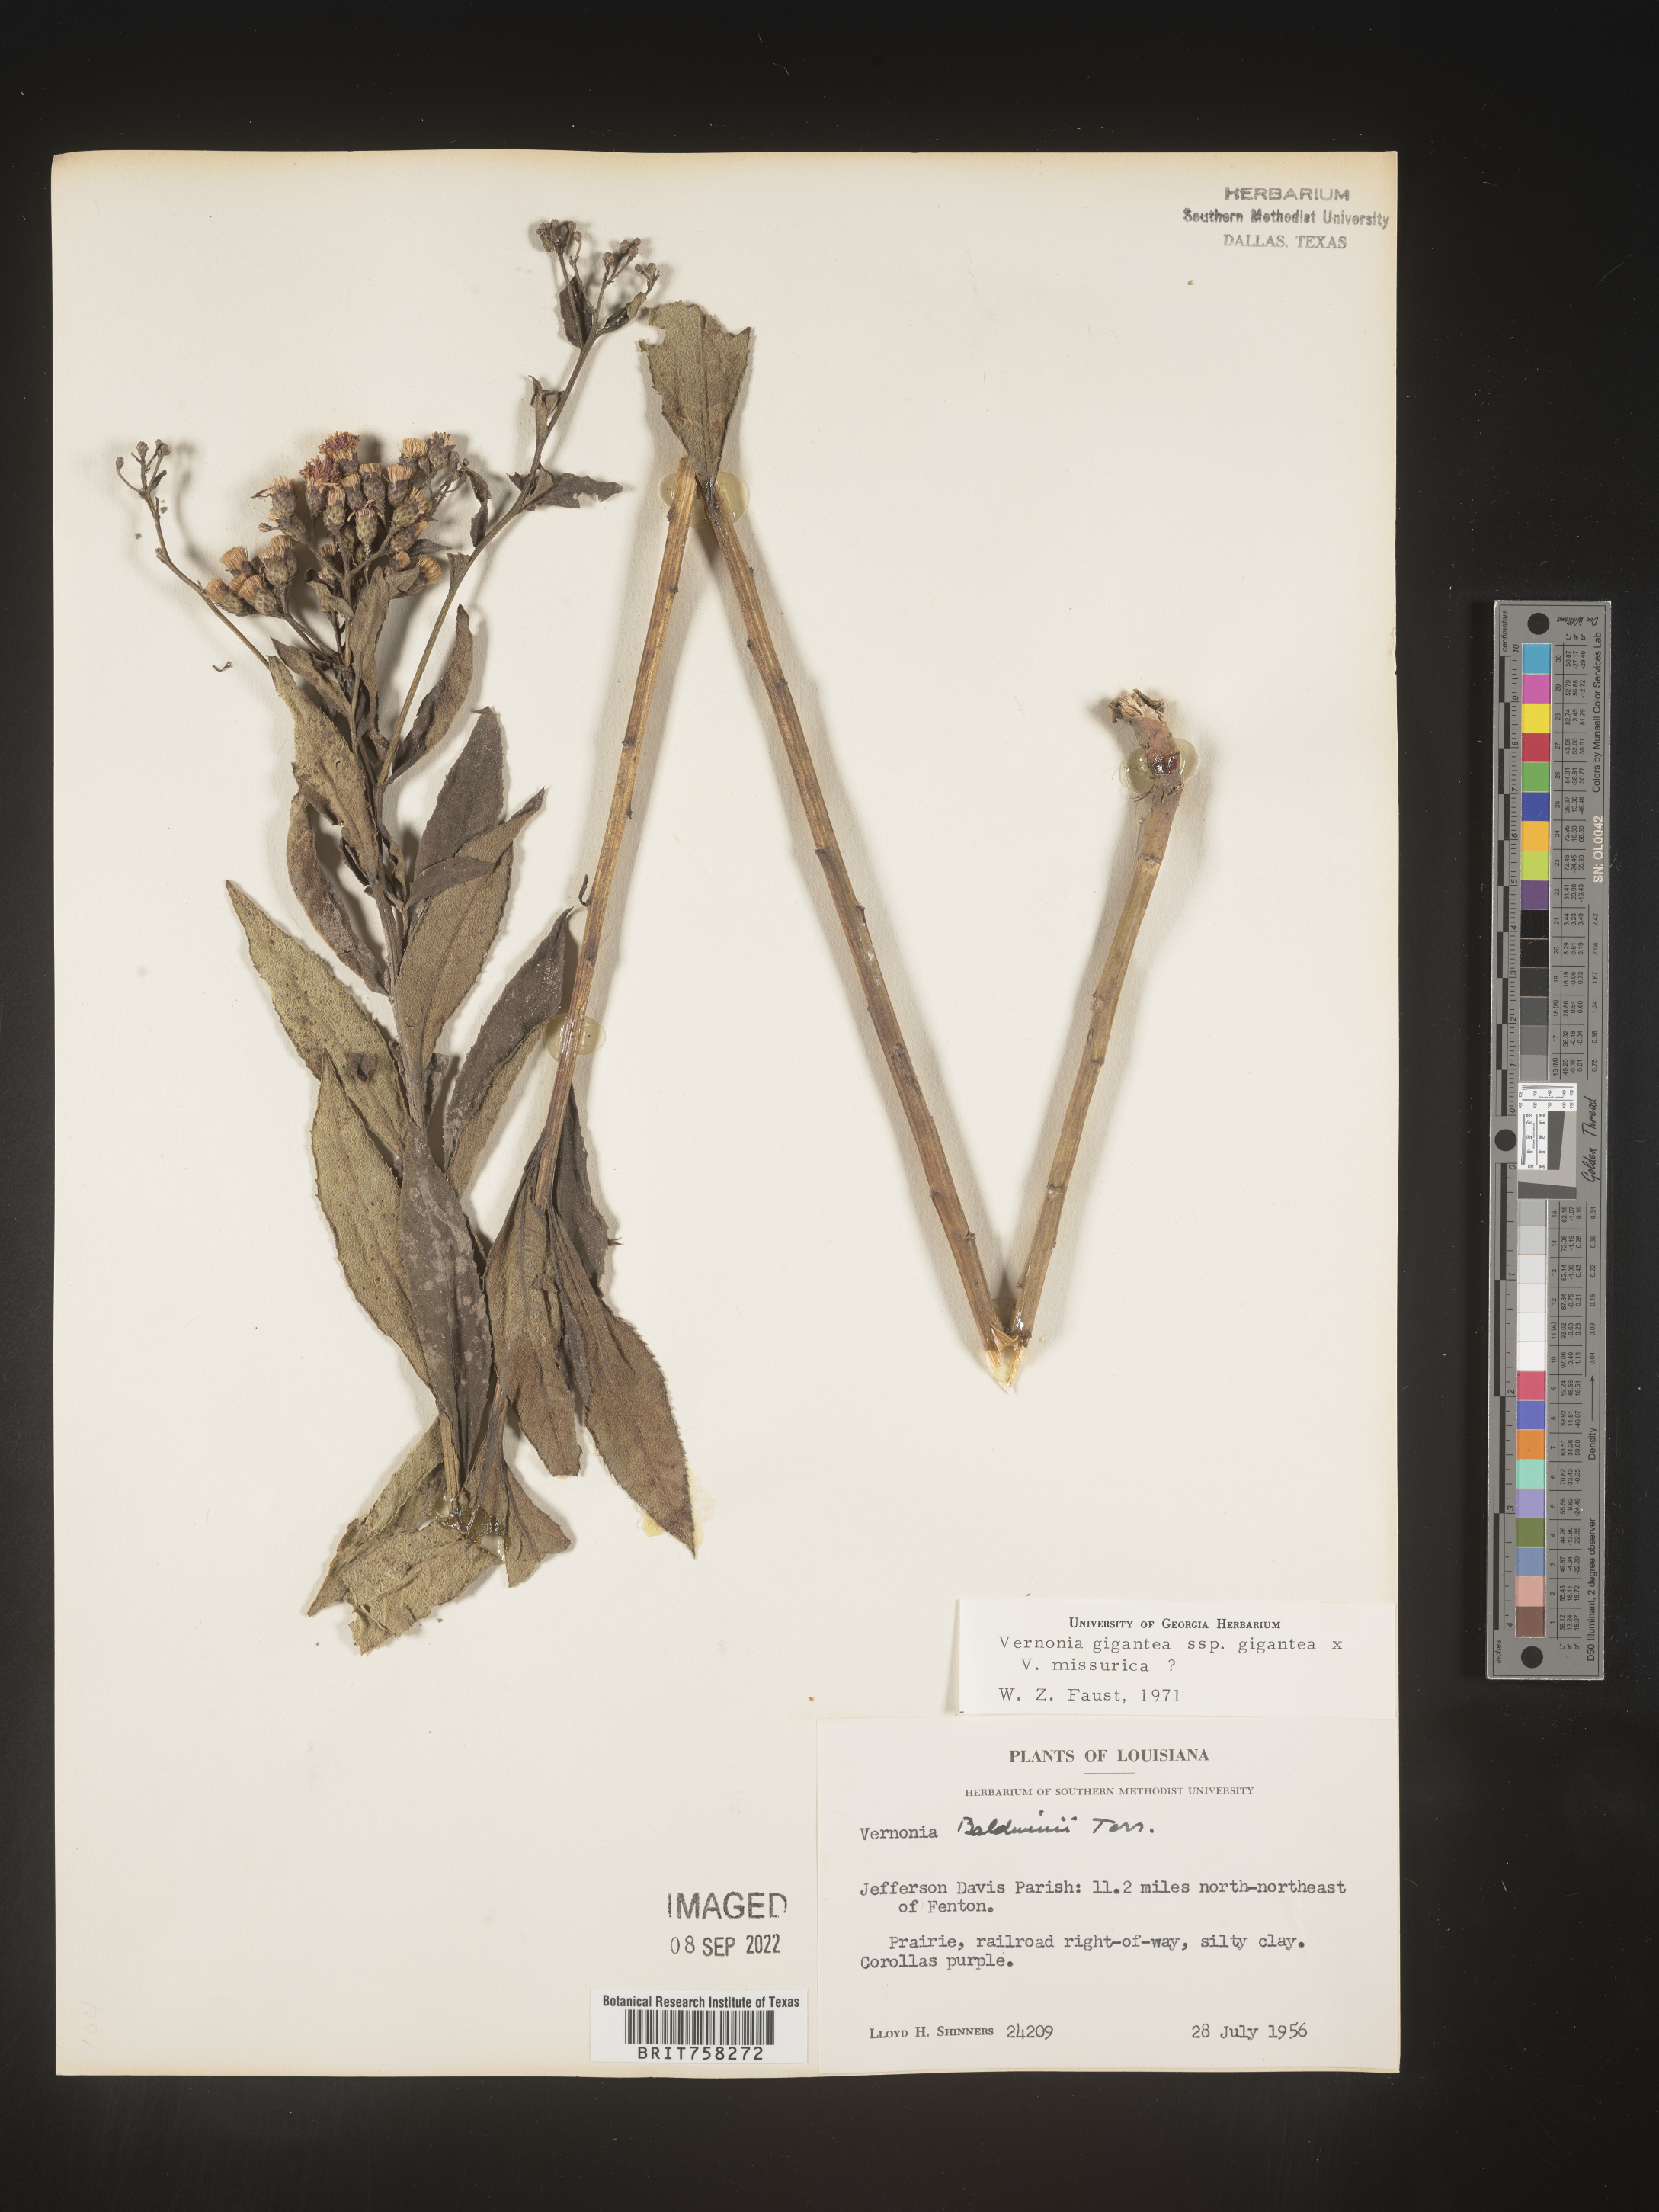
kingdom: Plantae
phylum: Tracheophyta
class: Magnoliopsida
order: Asterales
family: Asteraceae
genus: Vernonia
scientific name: Vernonia gigantea
